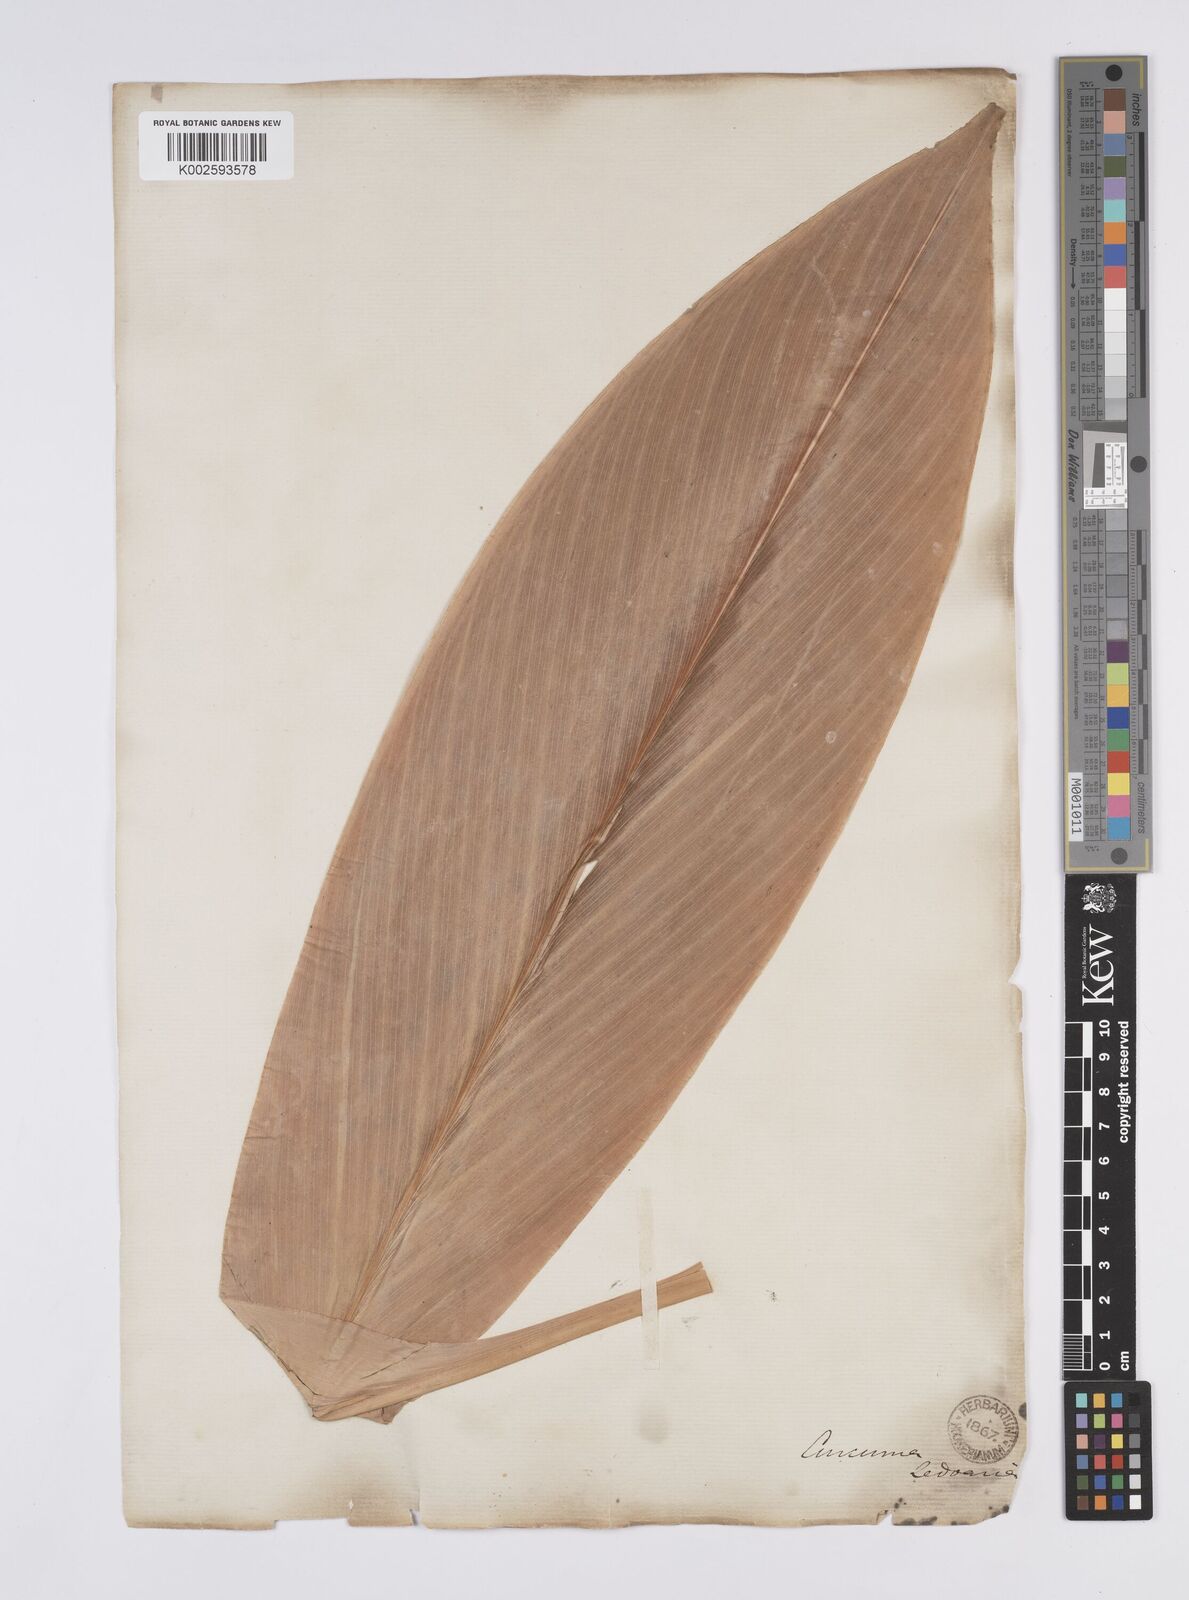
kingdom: Plantae
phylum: Tracheophyta
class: Liliopsida
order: Zingiberales
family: Zingiberaceae
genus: Curcuma
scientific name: Curcuma aromatica
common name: Wild turmeric
